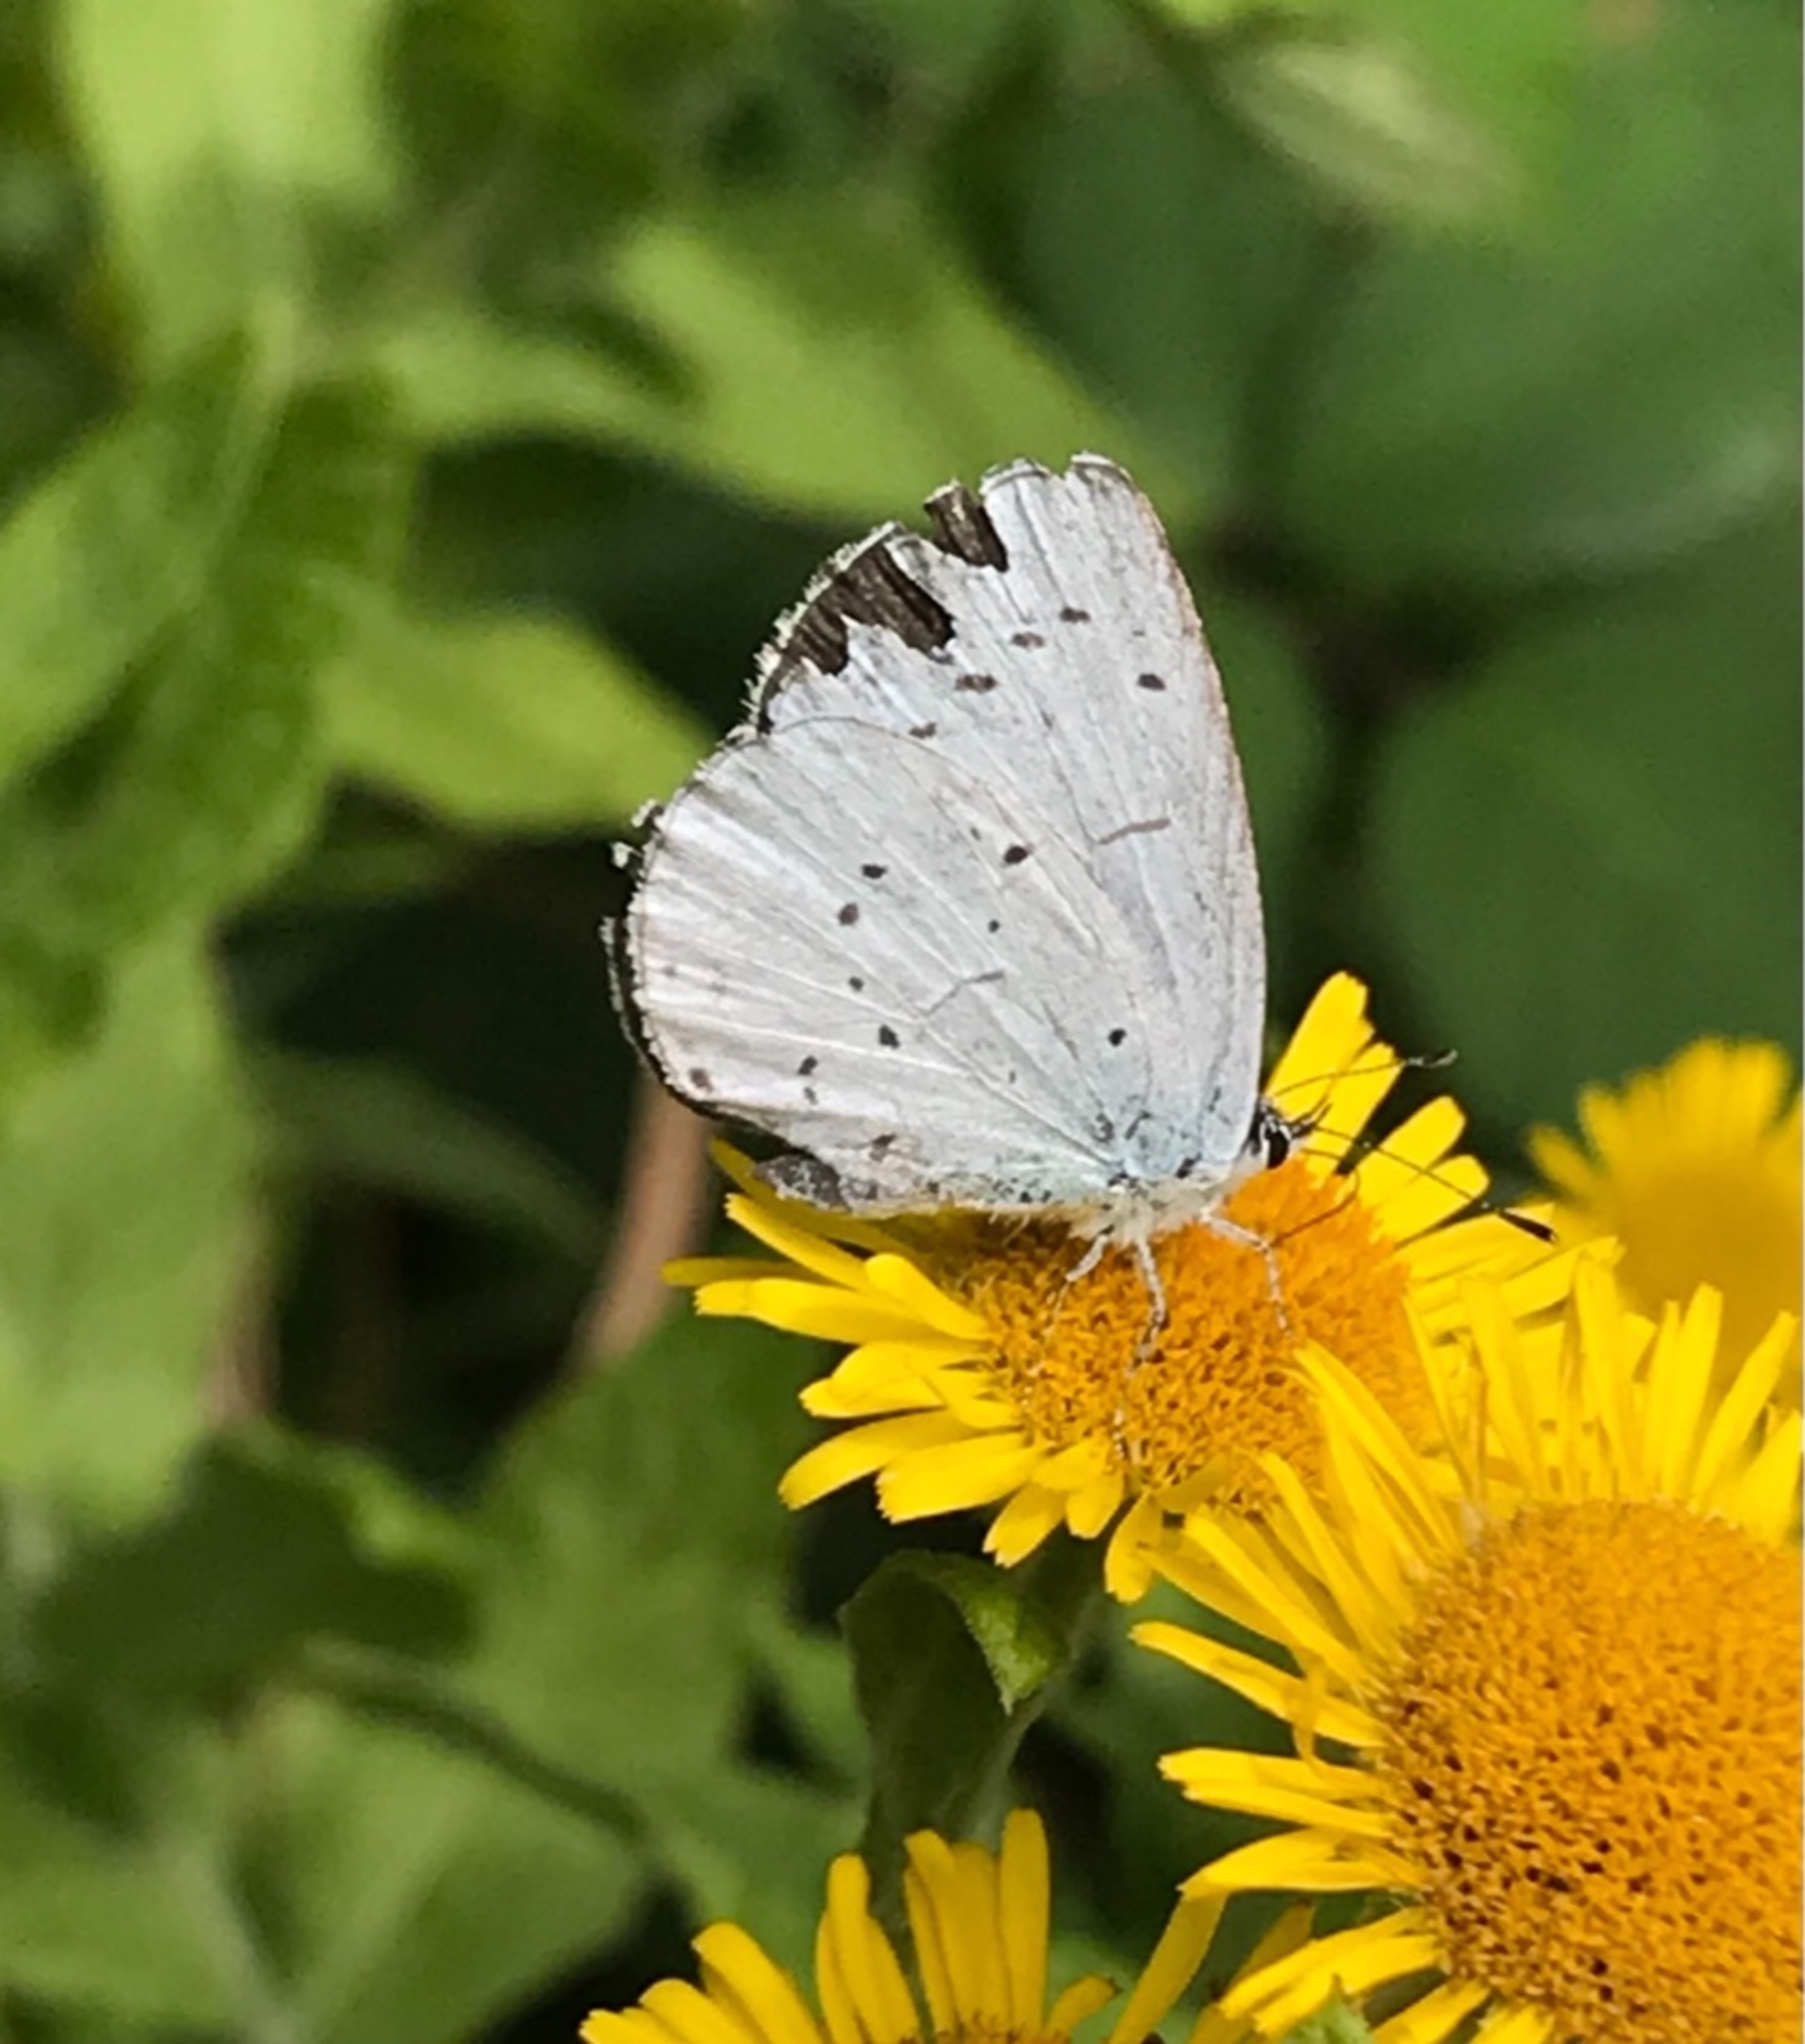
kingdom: Animalia
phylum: Arthropoda
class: Insecta
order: Lepidoptera
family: Lycaenidae
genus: Celastrina
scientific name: Celastrina argiolus
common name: Skovblåfugl
